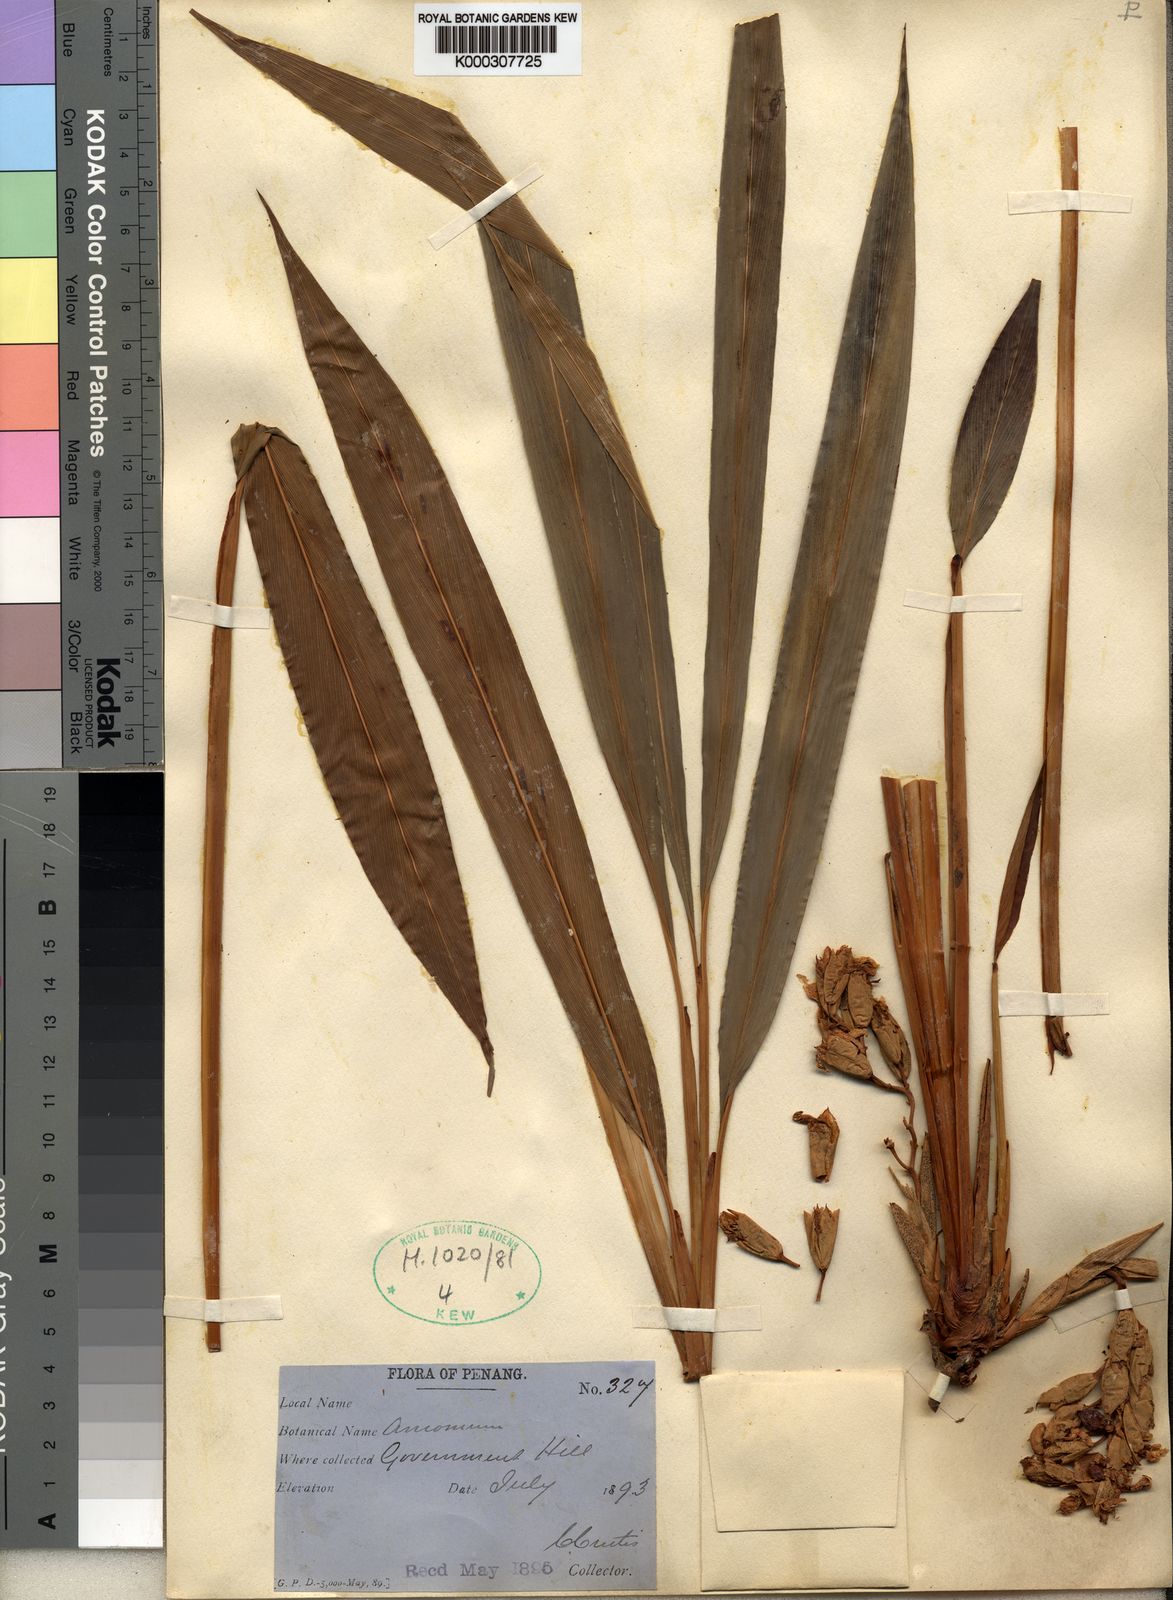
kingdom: Plantae
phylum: Tracheophyta
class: Liliopsida
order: Zingiberales
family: Zingiberaceae
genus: Geostachys
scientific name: Geostachys penangensis
